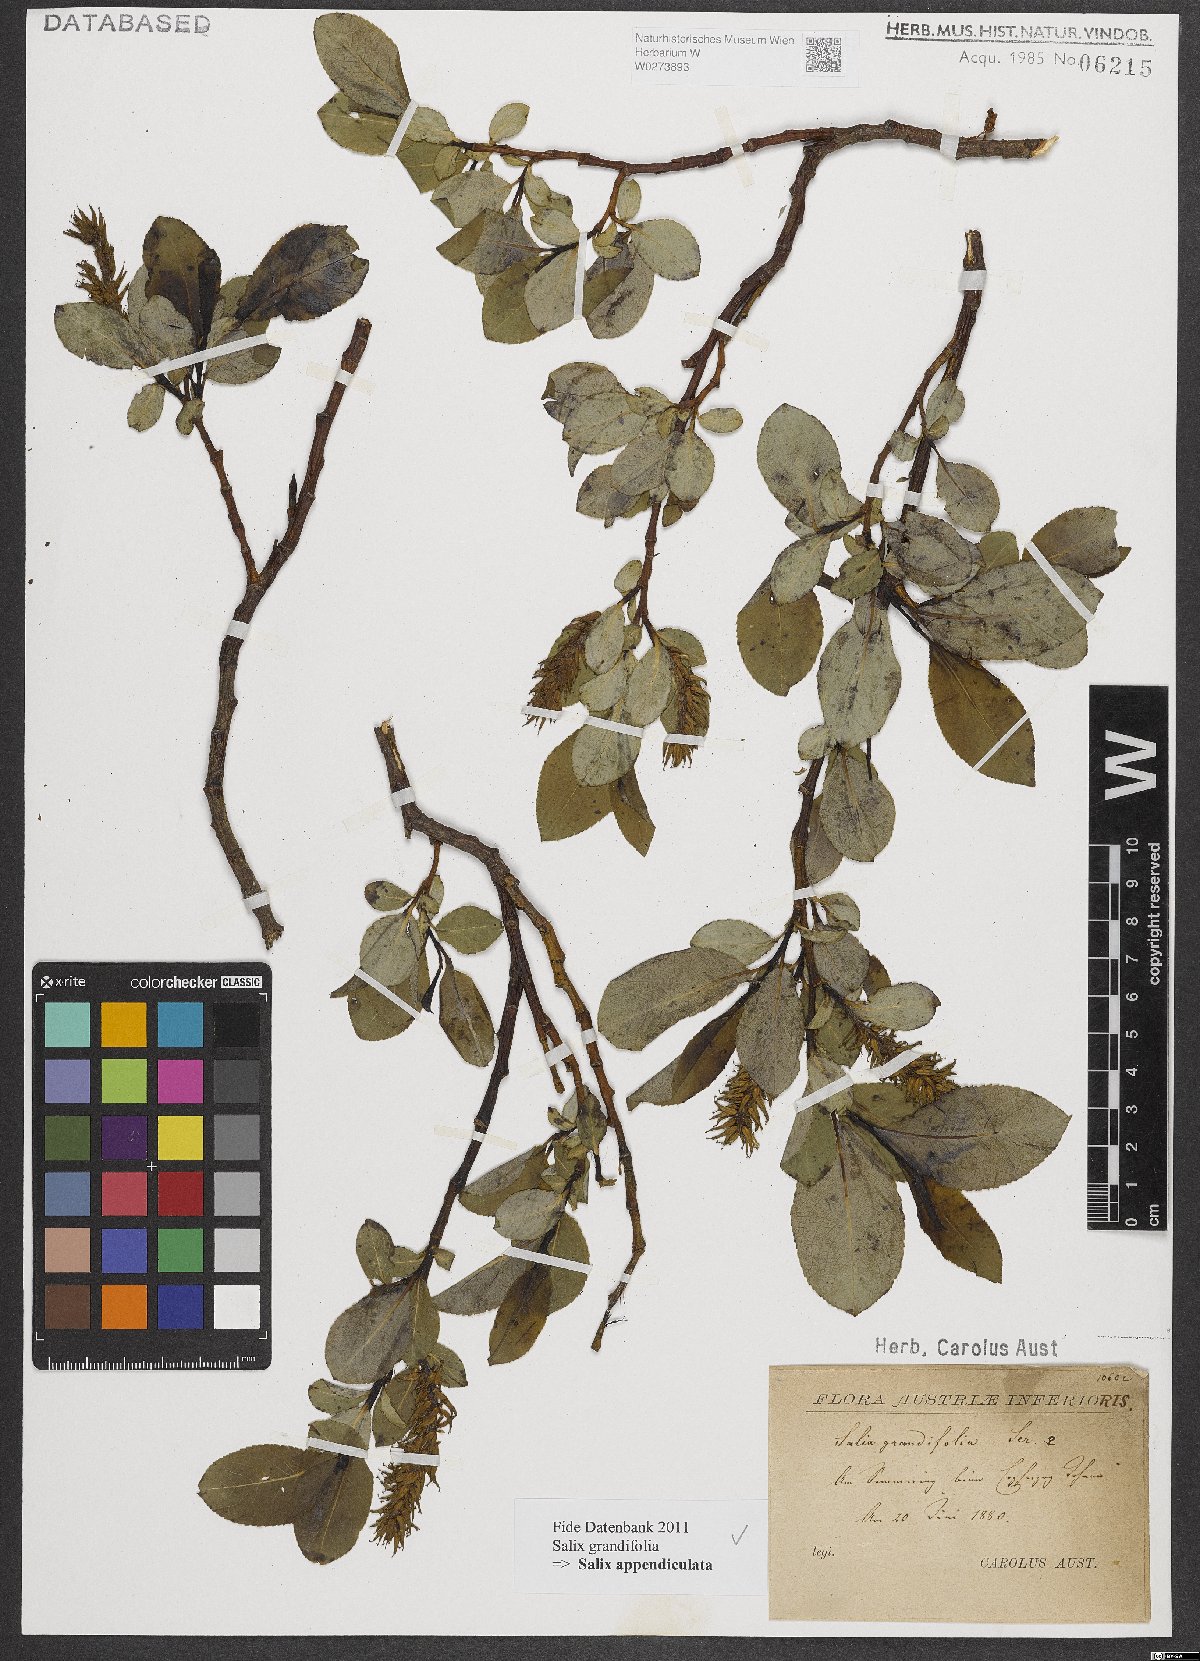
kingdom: Plantae
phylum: Tracheophyta
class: Magnoliopsida
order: Malpighiales
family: Salicaceae
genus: Salix
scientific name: Salix appendiculata
